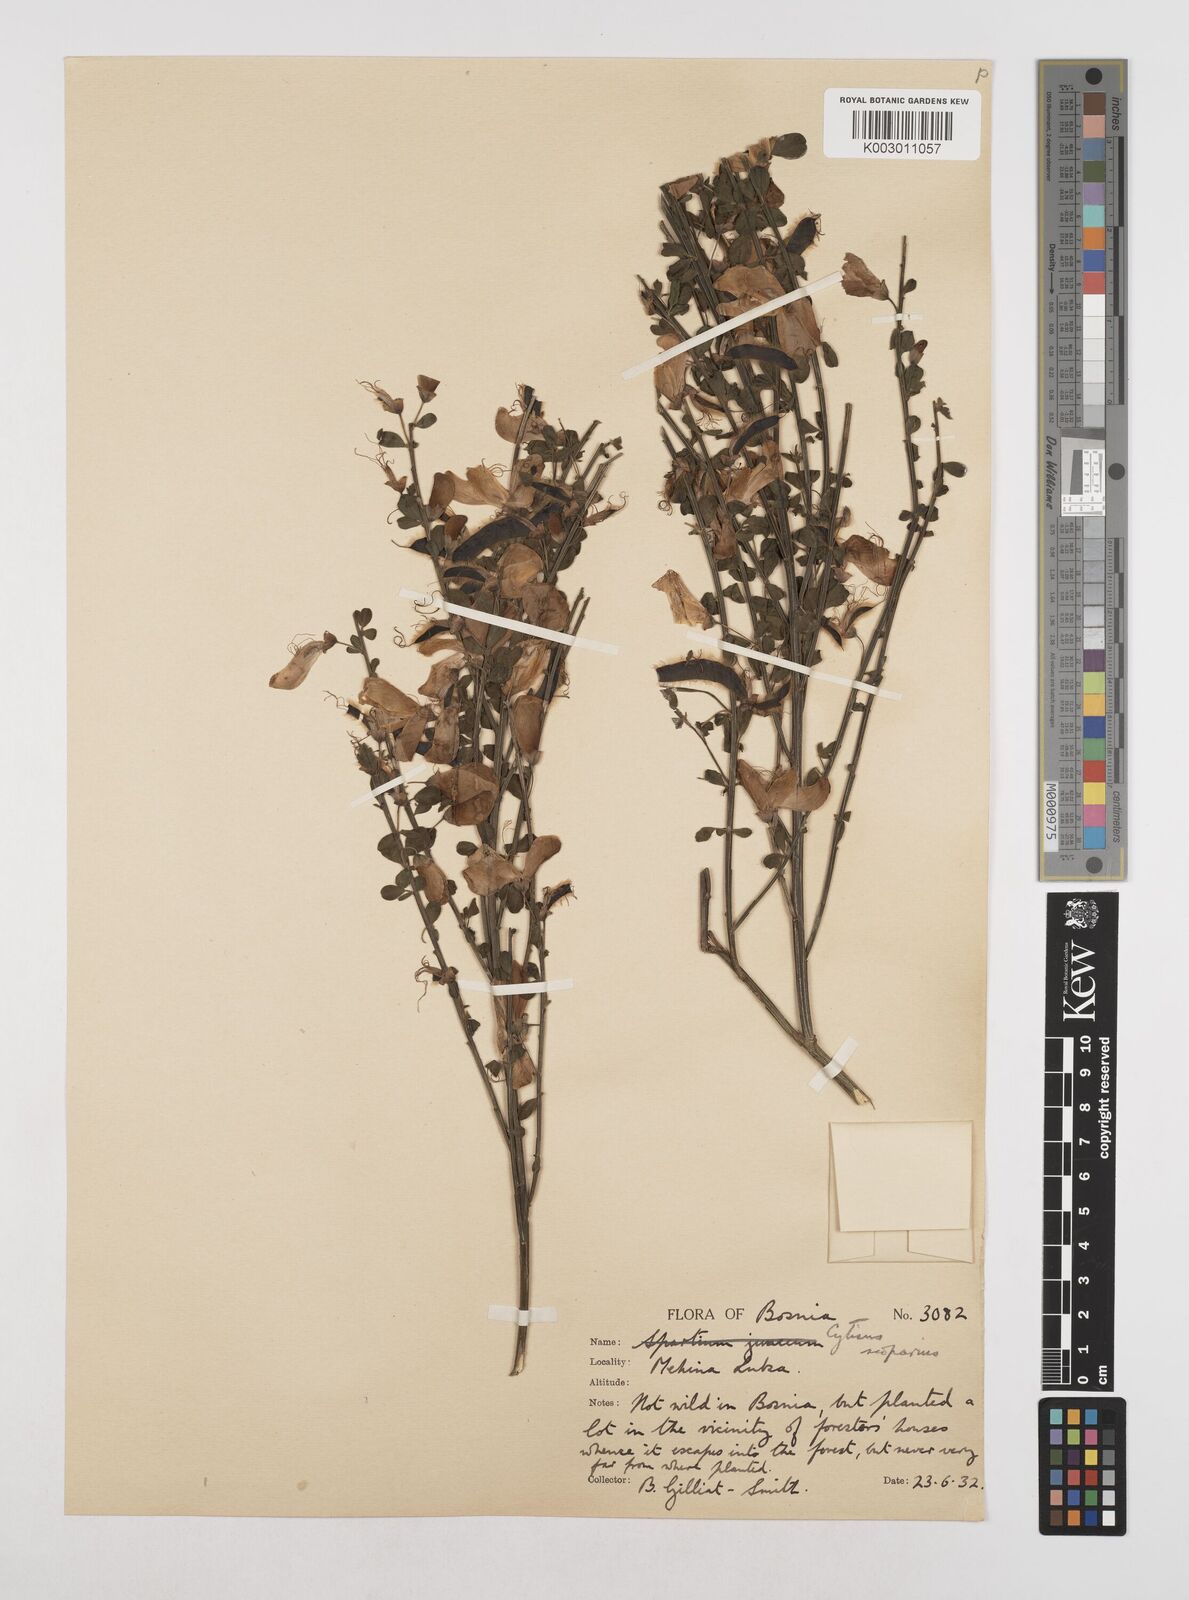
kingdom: Plantae
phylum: Tracheophyta
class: Magnoliopsida
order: Fabales
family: Fabaceae
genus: Cytisus
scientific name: Cytisus scoparius
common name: Scotch broom
